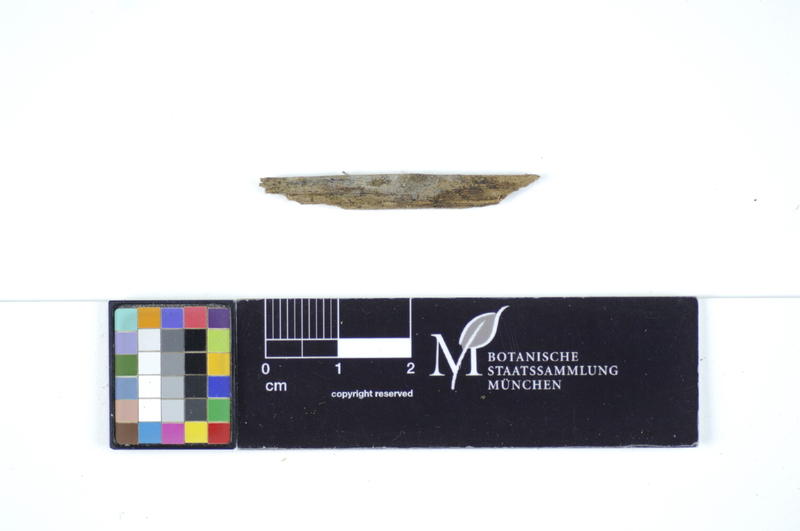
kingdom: Plantae
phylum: Tracheophyta
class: Pinopsida
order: Pinales
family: Pinaceae
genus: Pinus
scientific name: Pinus
